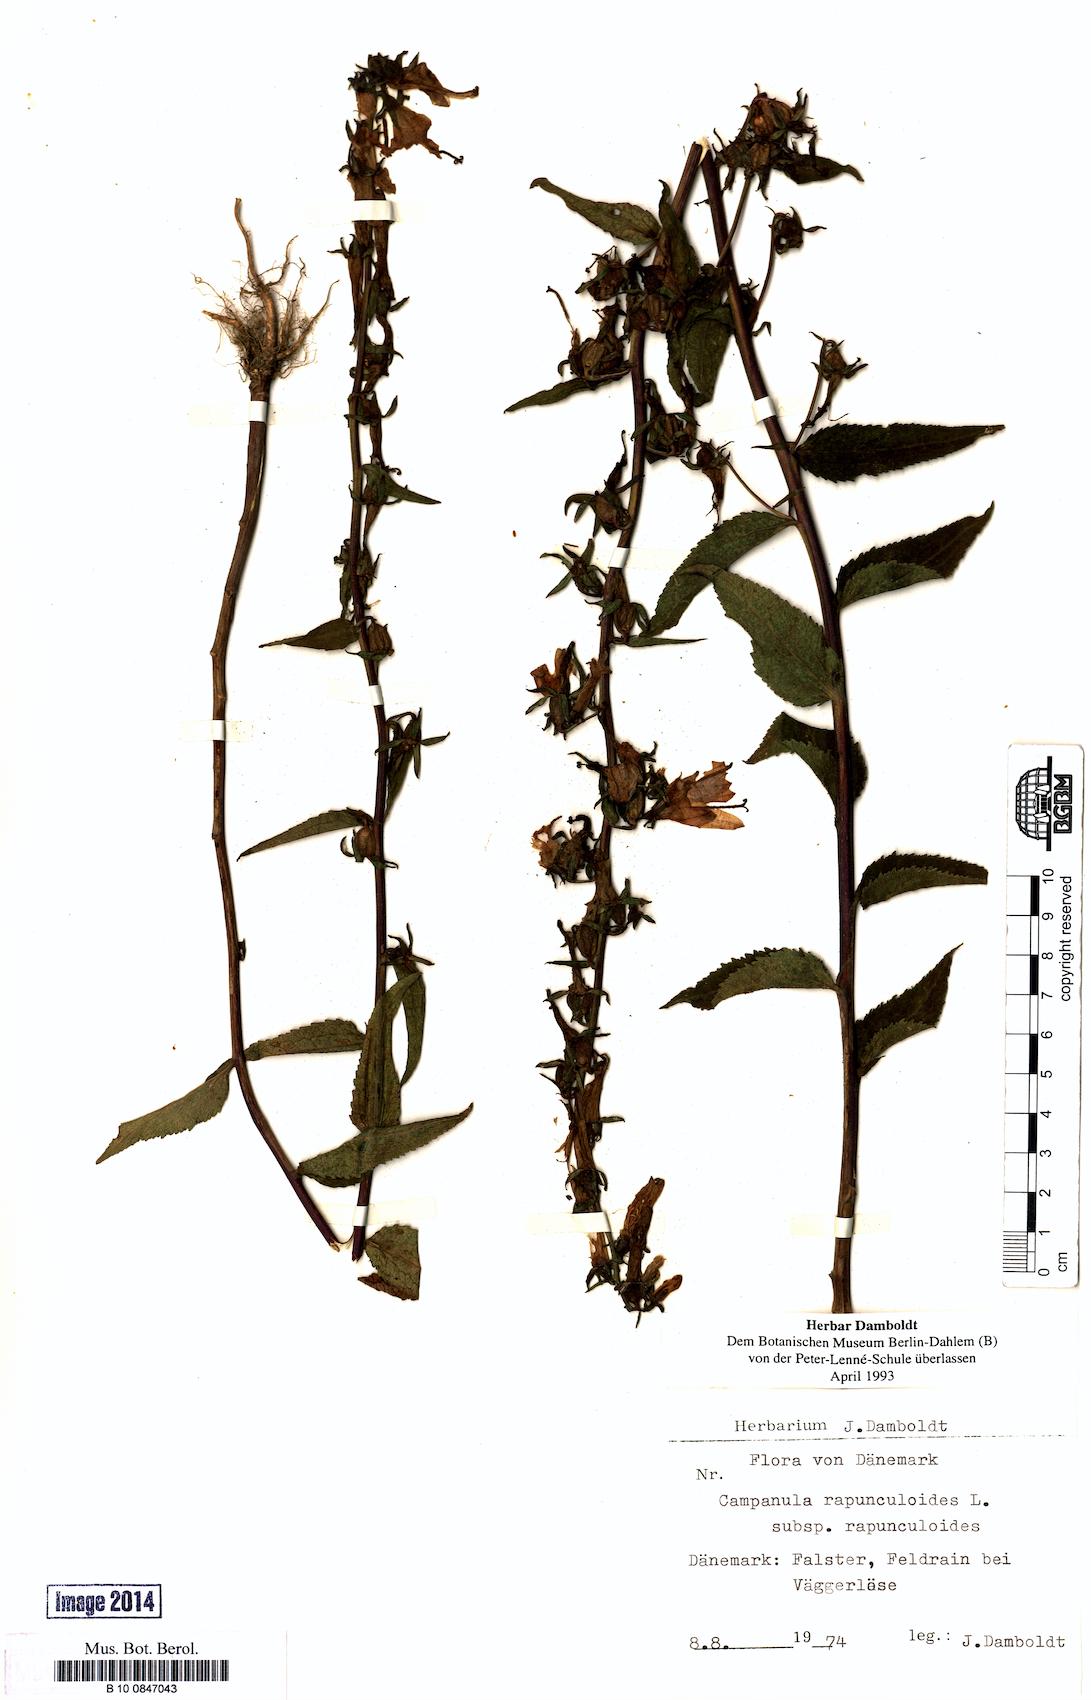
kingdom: Plantae
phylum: Tracheophyta
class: Magnoliopsida
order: Asterales
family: Campanulaceae
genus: Campanula
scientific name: Campanula rapunculoides
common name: Creeping bellflower
